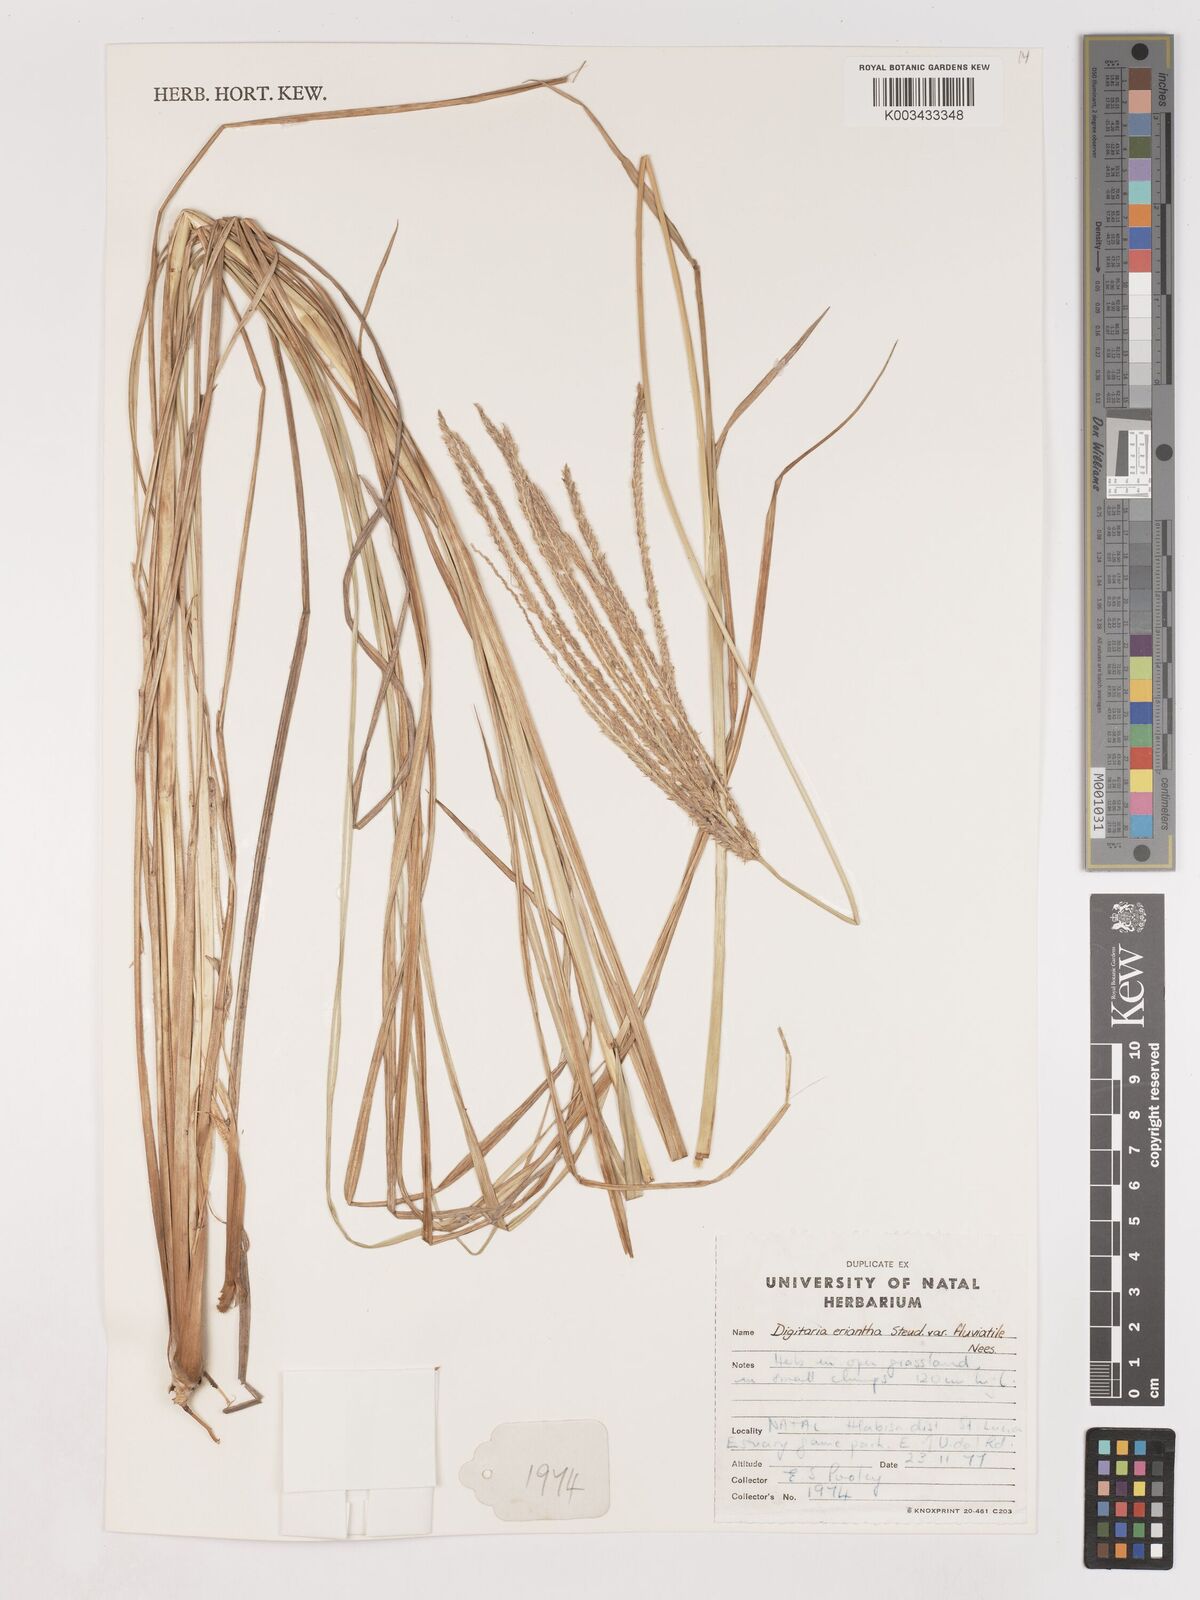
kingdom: Plantae
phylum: Tracheophyta
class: Liliopsida
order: Poales
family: Poaceae
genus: Digitaria
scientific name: Digitaria eriantha
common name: Digitgrass
